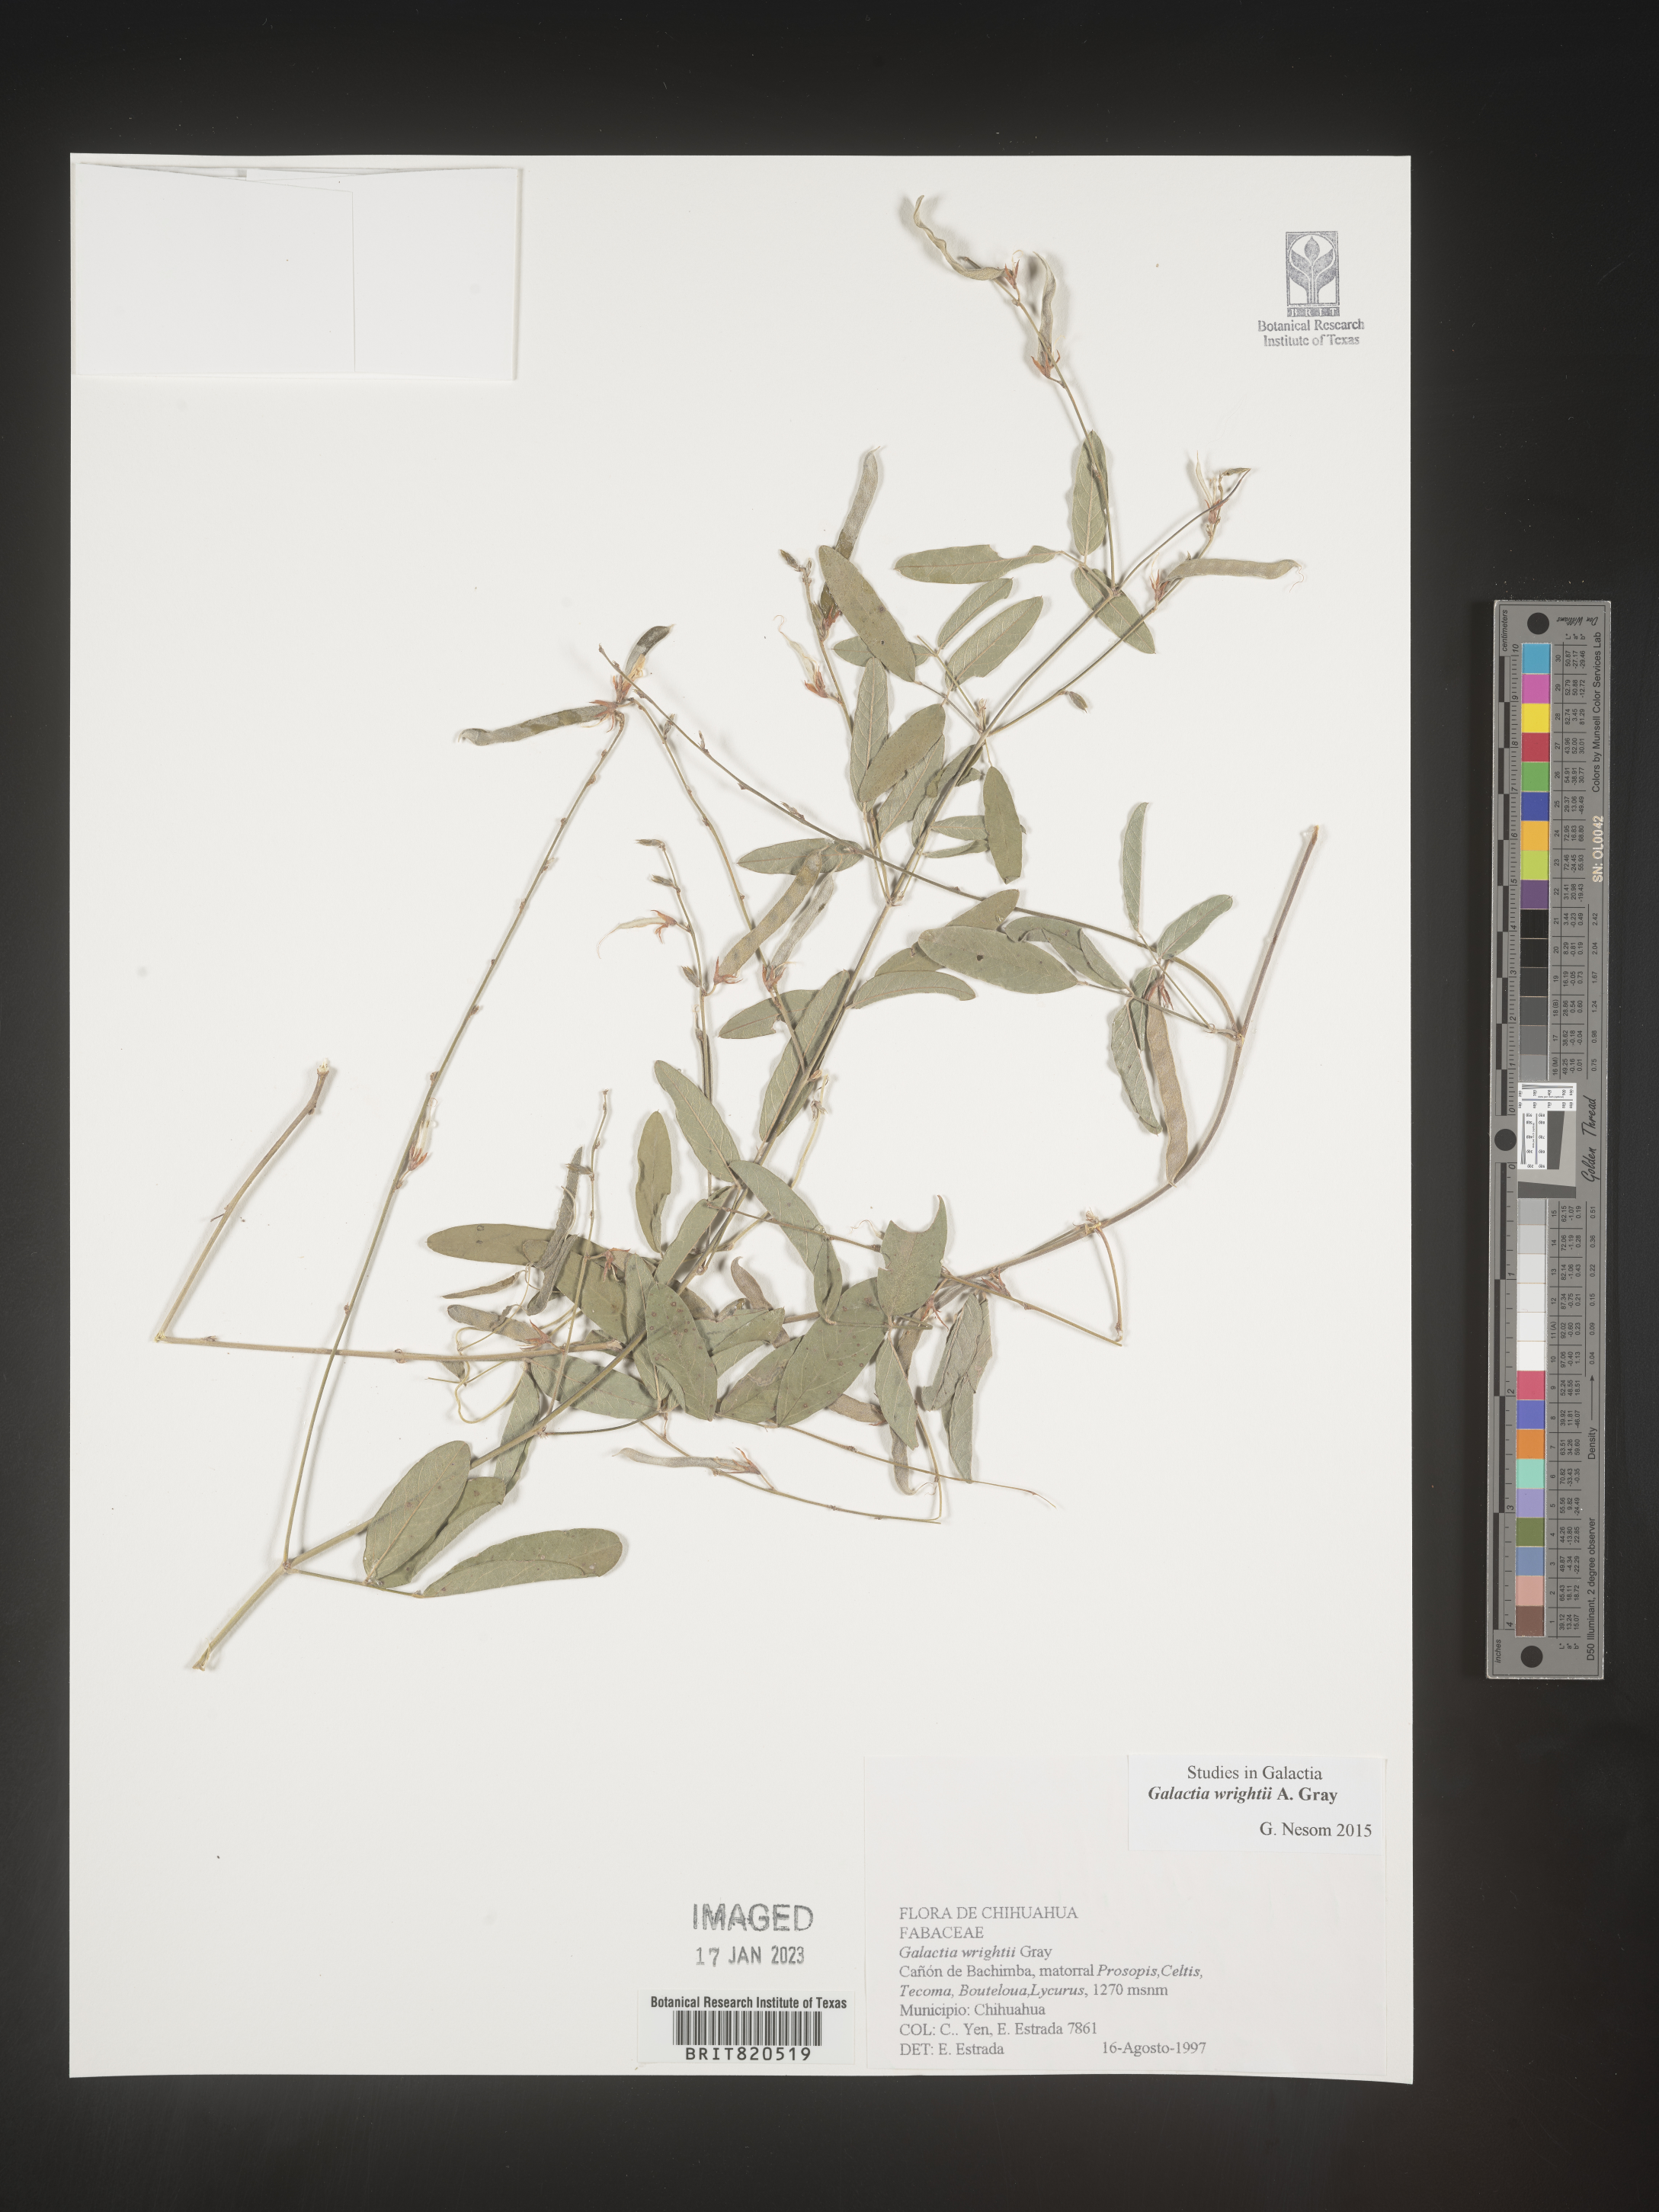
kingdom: Plantae
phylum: Tracheophyta
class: Magnoliopsida
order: Fabales
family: Fabaceae
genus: Galactia
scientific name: Galactia wrightii
